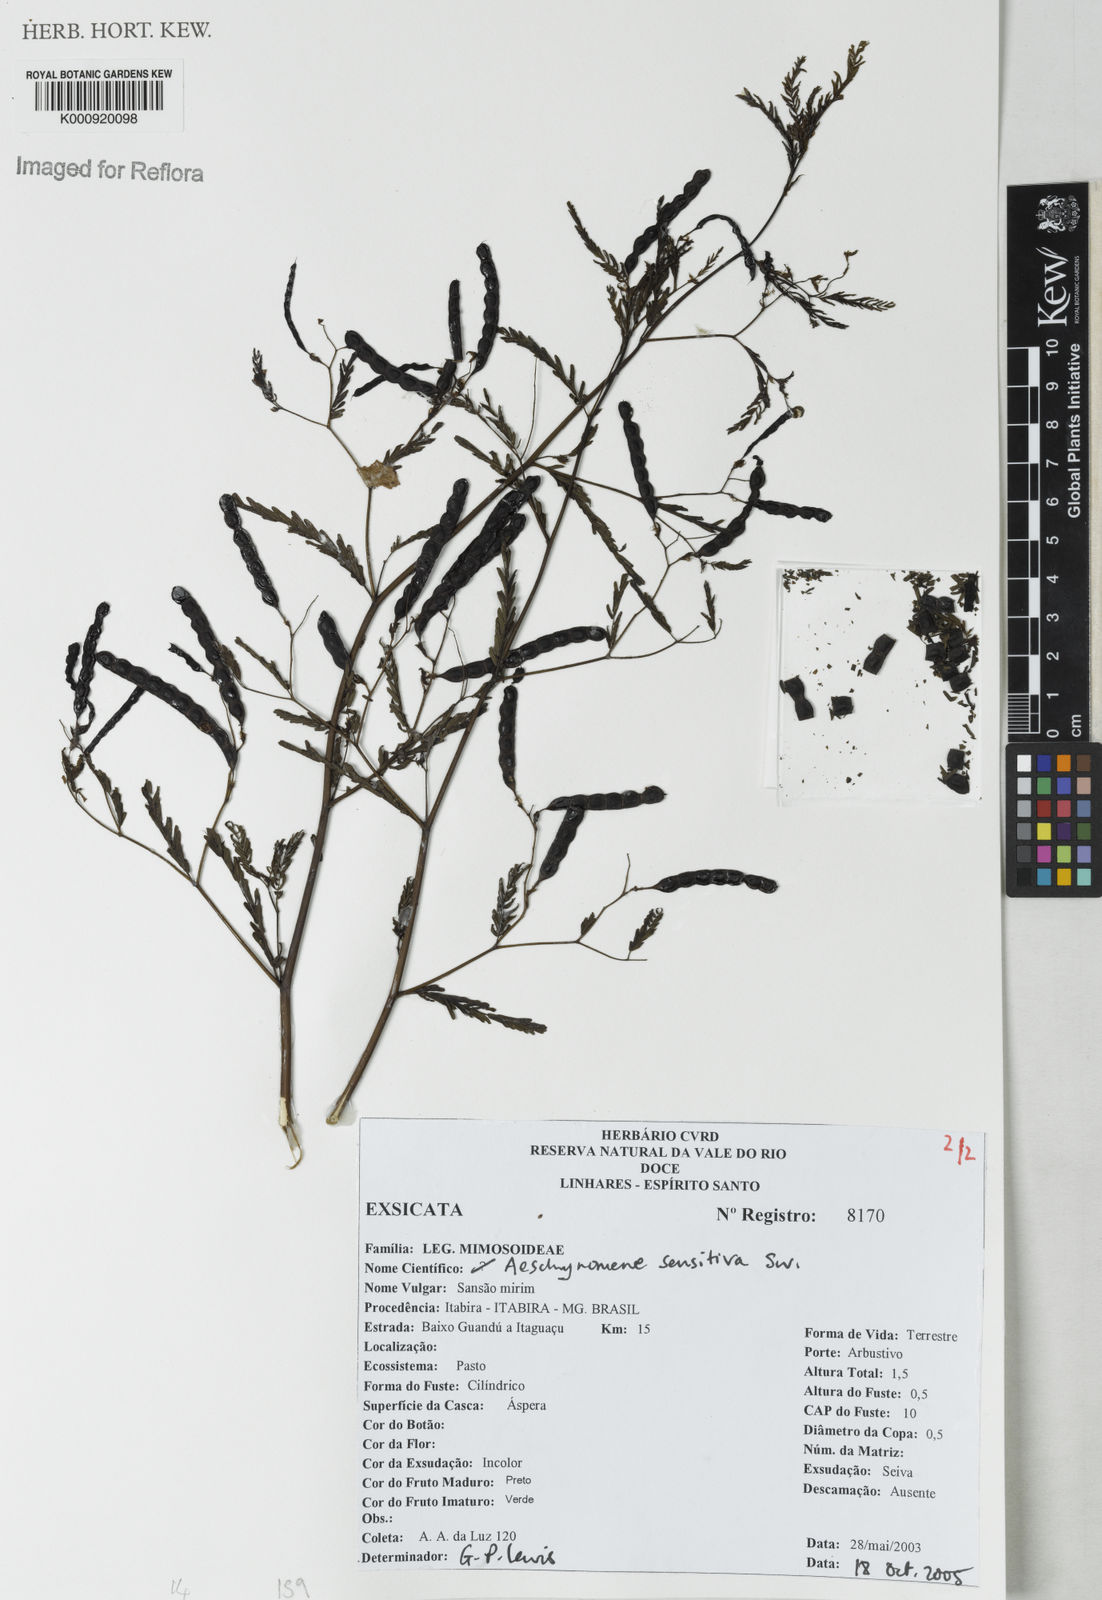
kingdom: Plantae
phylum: Tracheophyta
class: Magnoliopsida
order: Fabales
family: Fabaceae
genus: Aeschynomene
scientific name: Aeschynomene sensitiva
